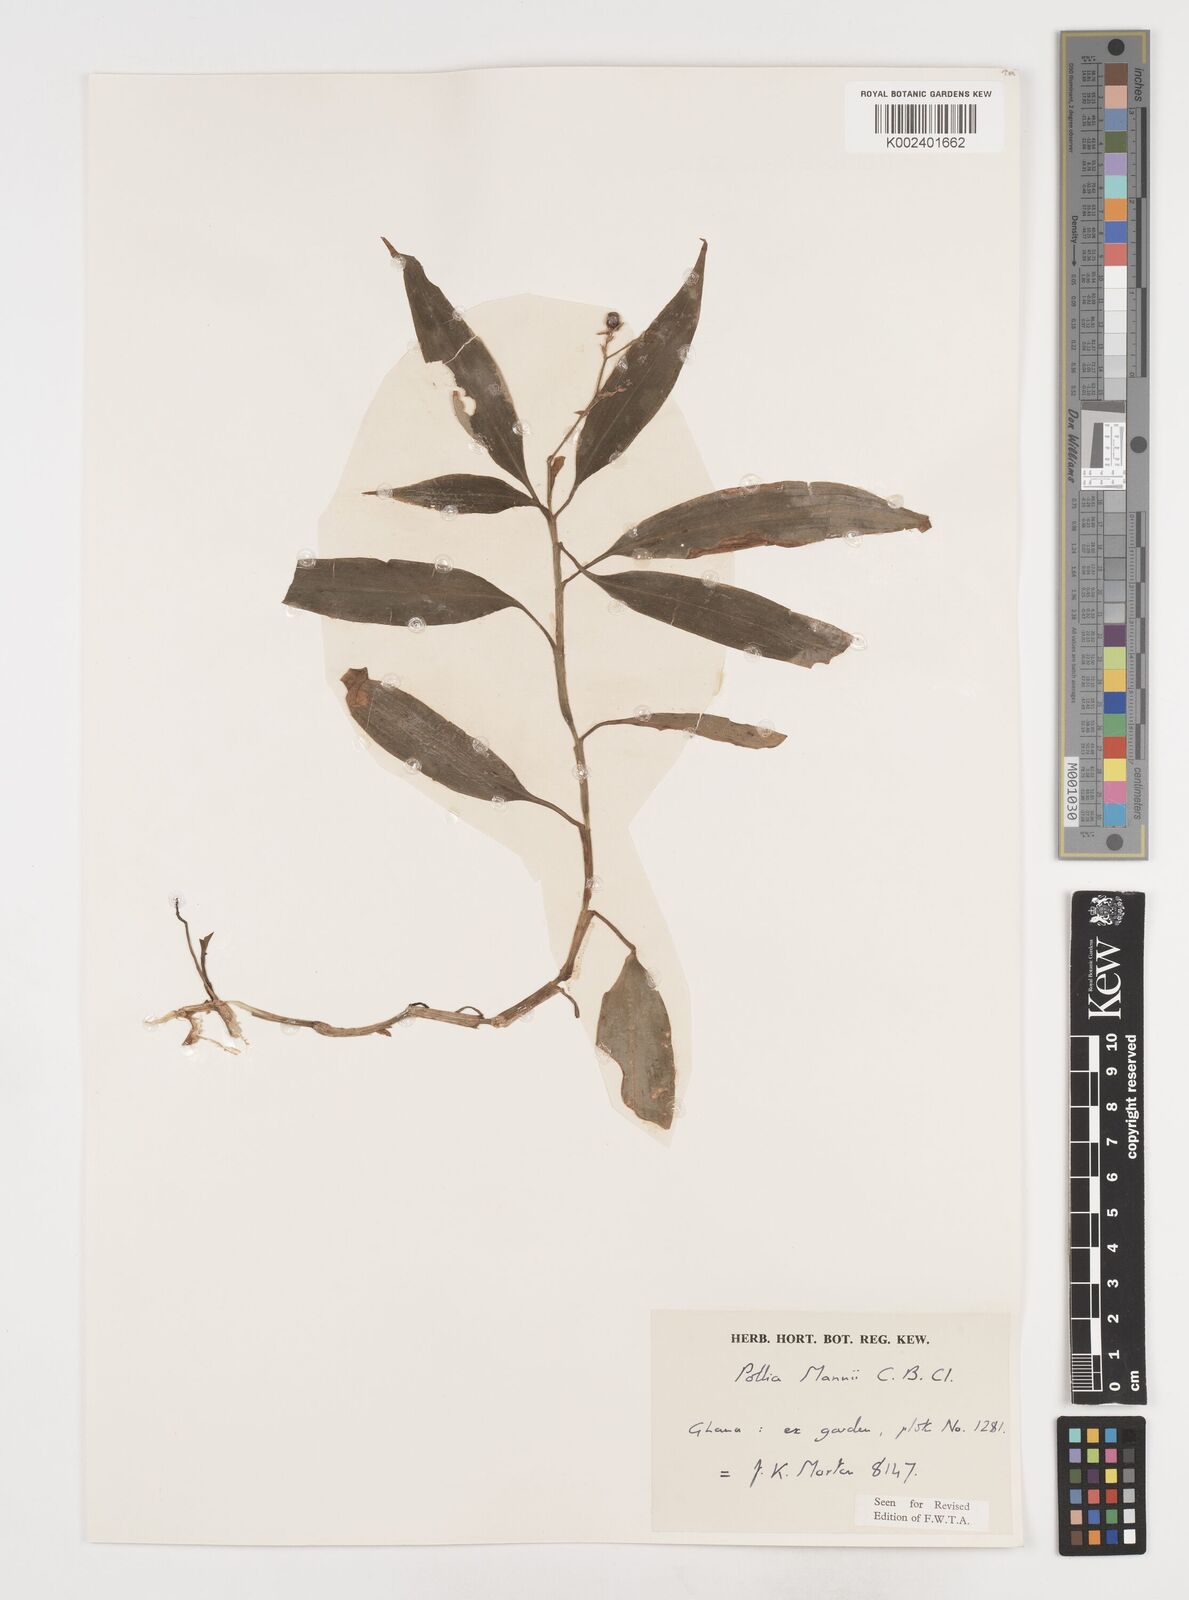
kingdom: Plantae
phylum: Tracheophyta
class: Liliopsida
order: Commelinales
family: Commelinaceae
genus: Pollia
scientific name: Pollia mannii
